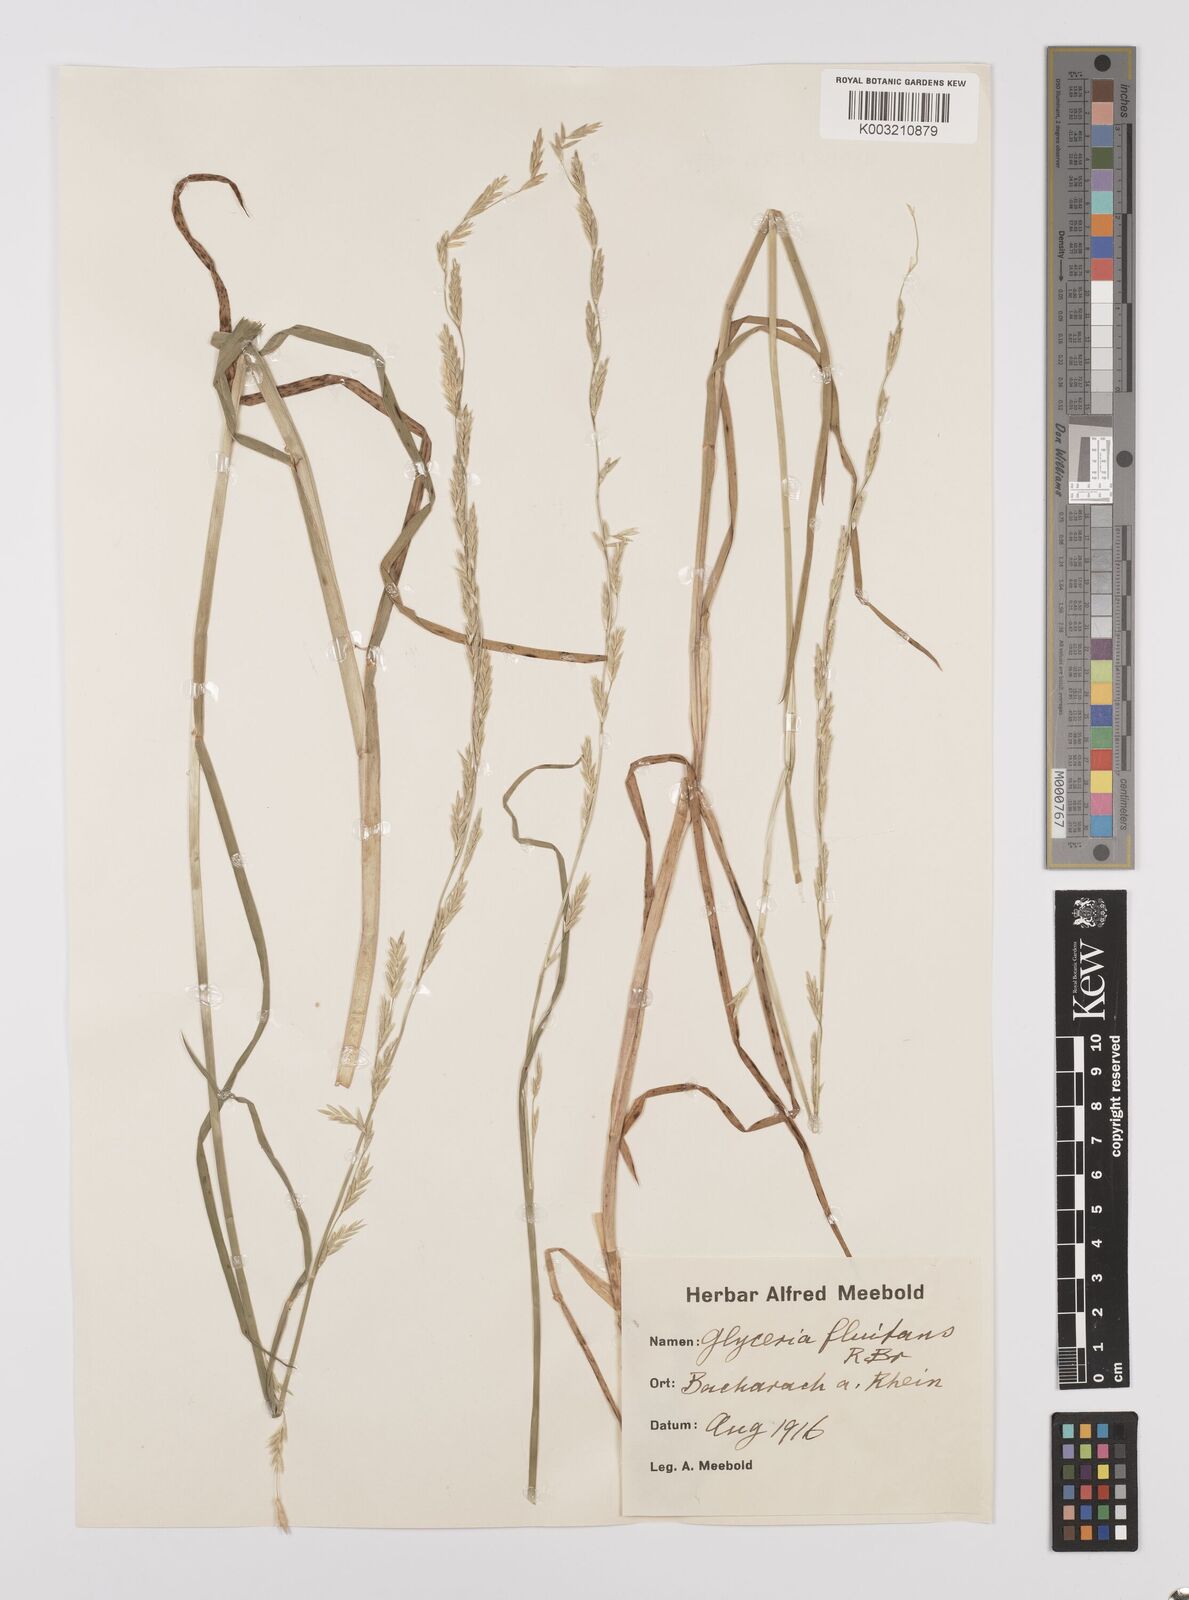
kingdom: Plantae
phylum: Tracheophyta
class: Liliopsida
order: Poales
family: Poaceae
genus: Glyceria
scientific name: Glyceria fluitans
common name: Floating sweet-grass
